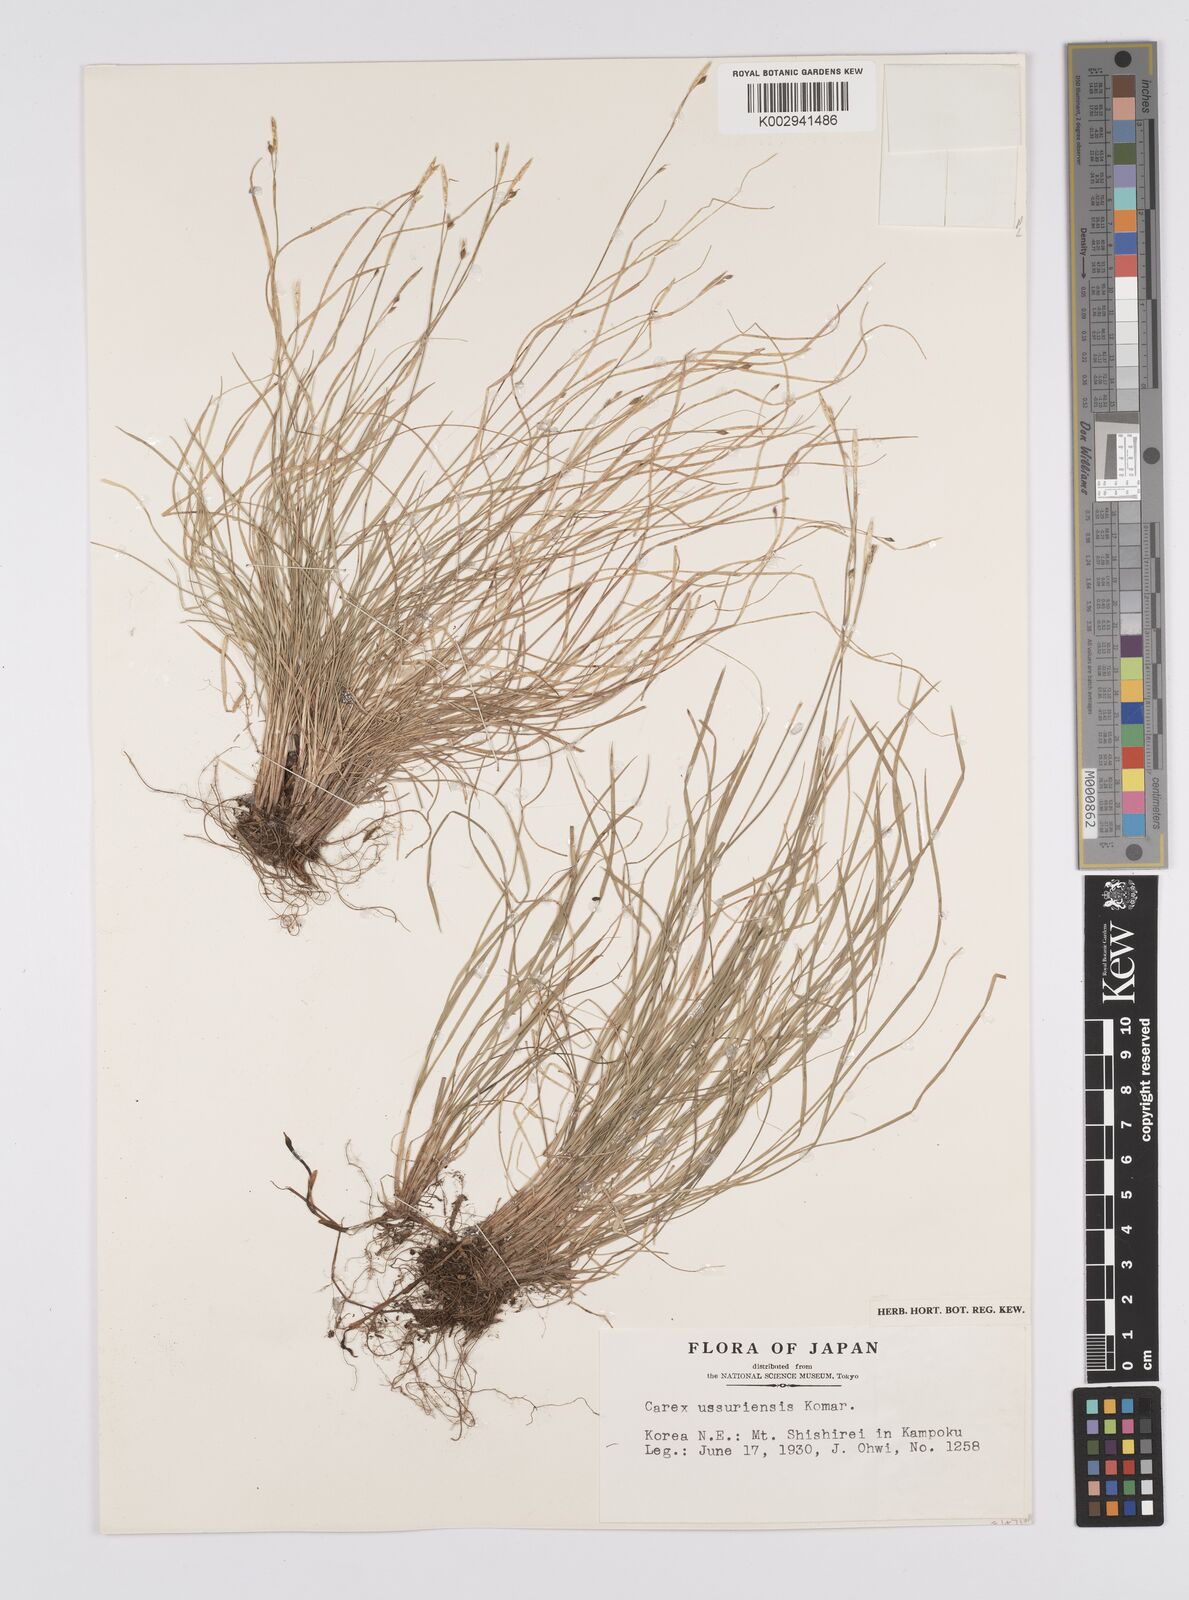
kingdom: Plantae
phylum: Tracheophyta
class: Liliopsida
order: Poales
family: Cyperaceae
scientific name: Cyperaceae
